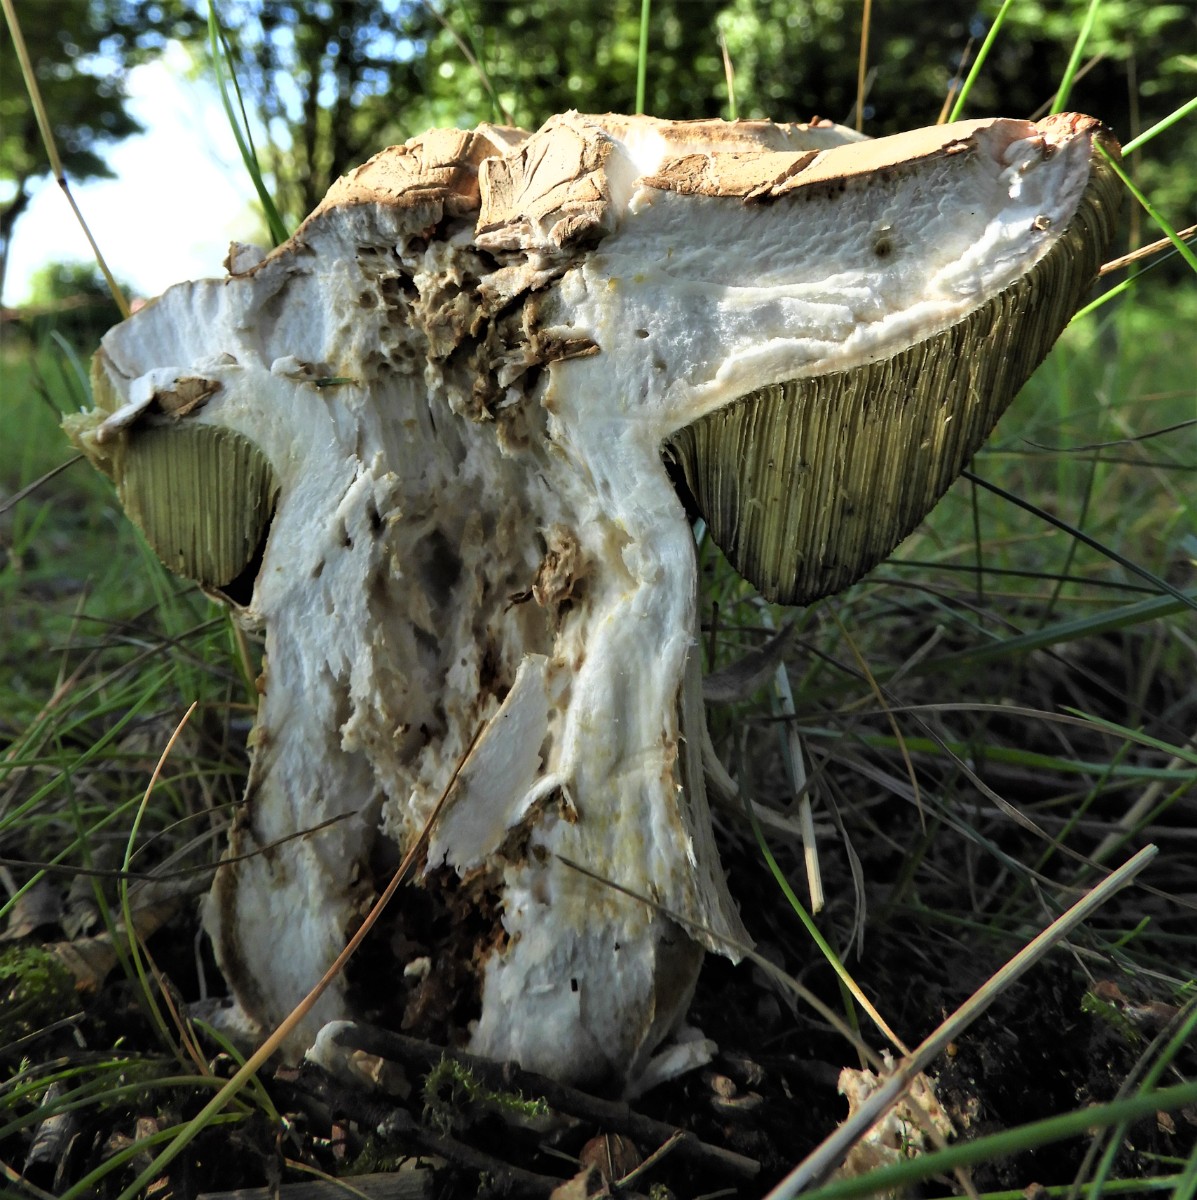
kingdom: Fungi
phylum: Basidiomycota
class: Agaricomycetes
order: Boletales
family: Boletaceae
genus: Boletus
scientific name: Boletus reticulatus
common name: sommer-rørhat
